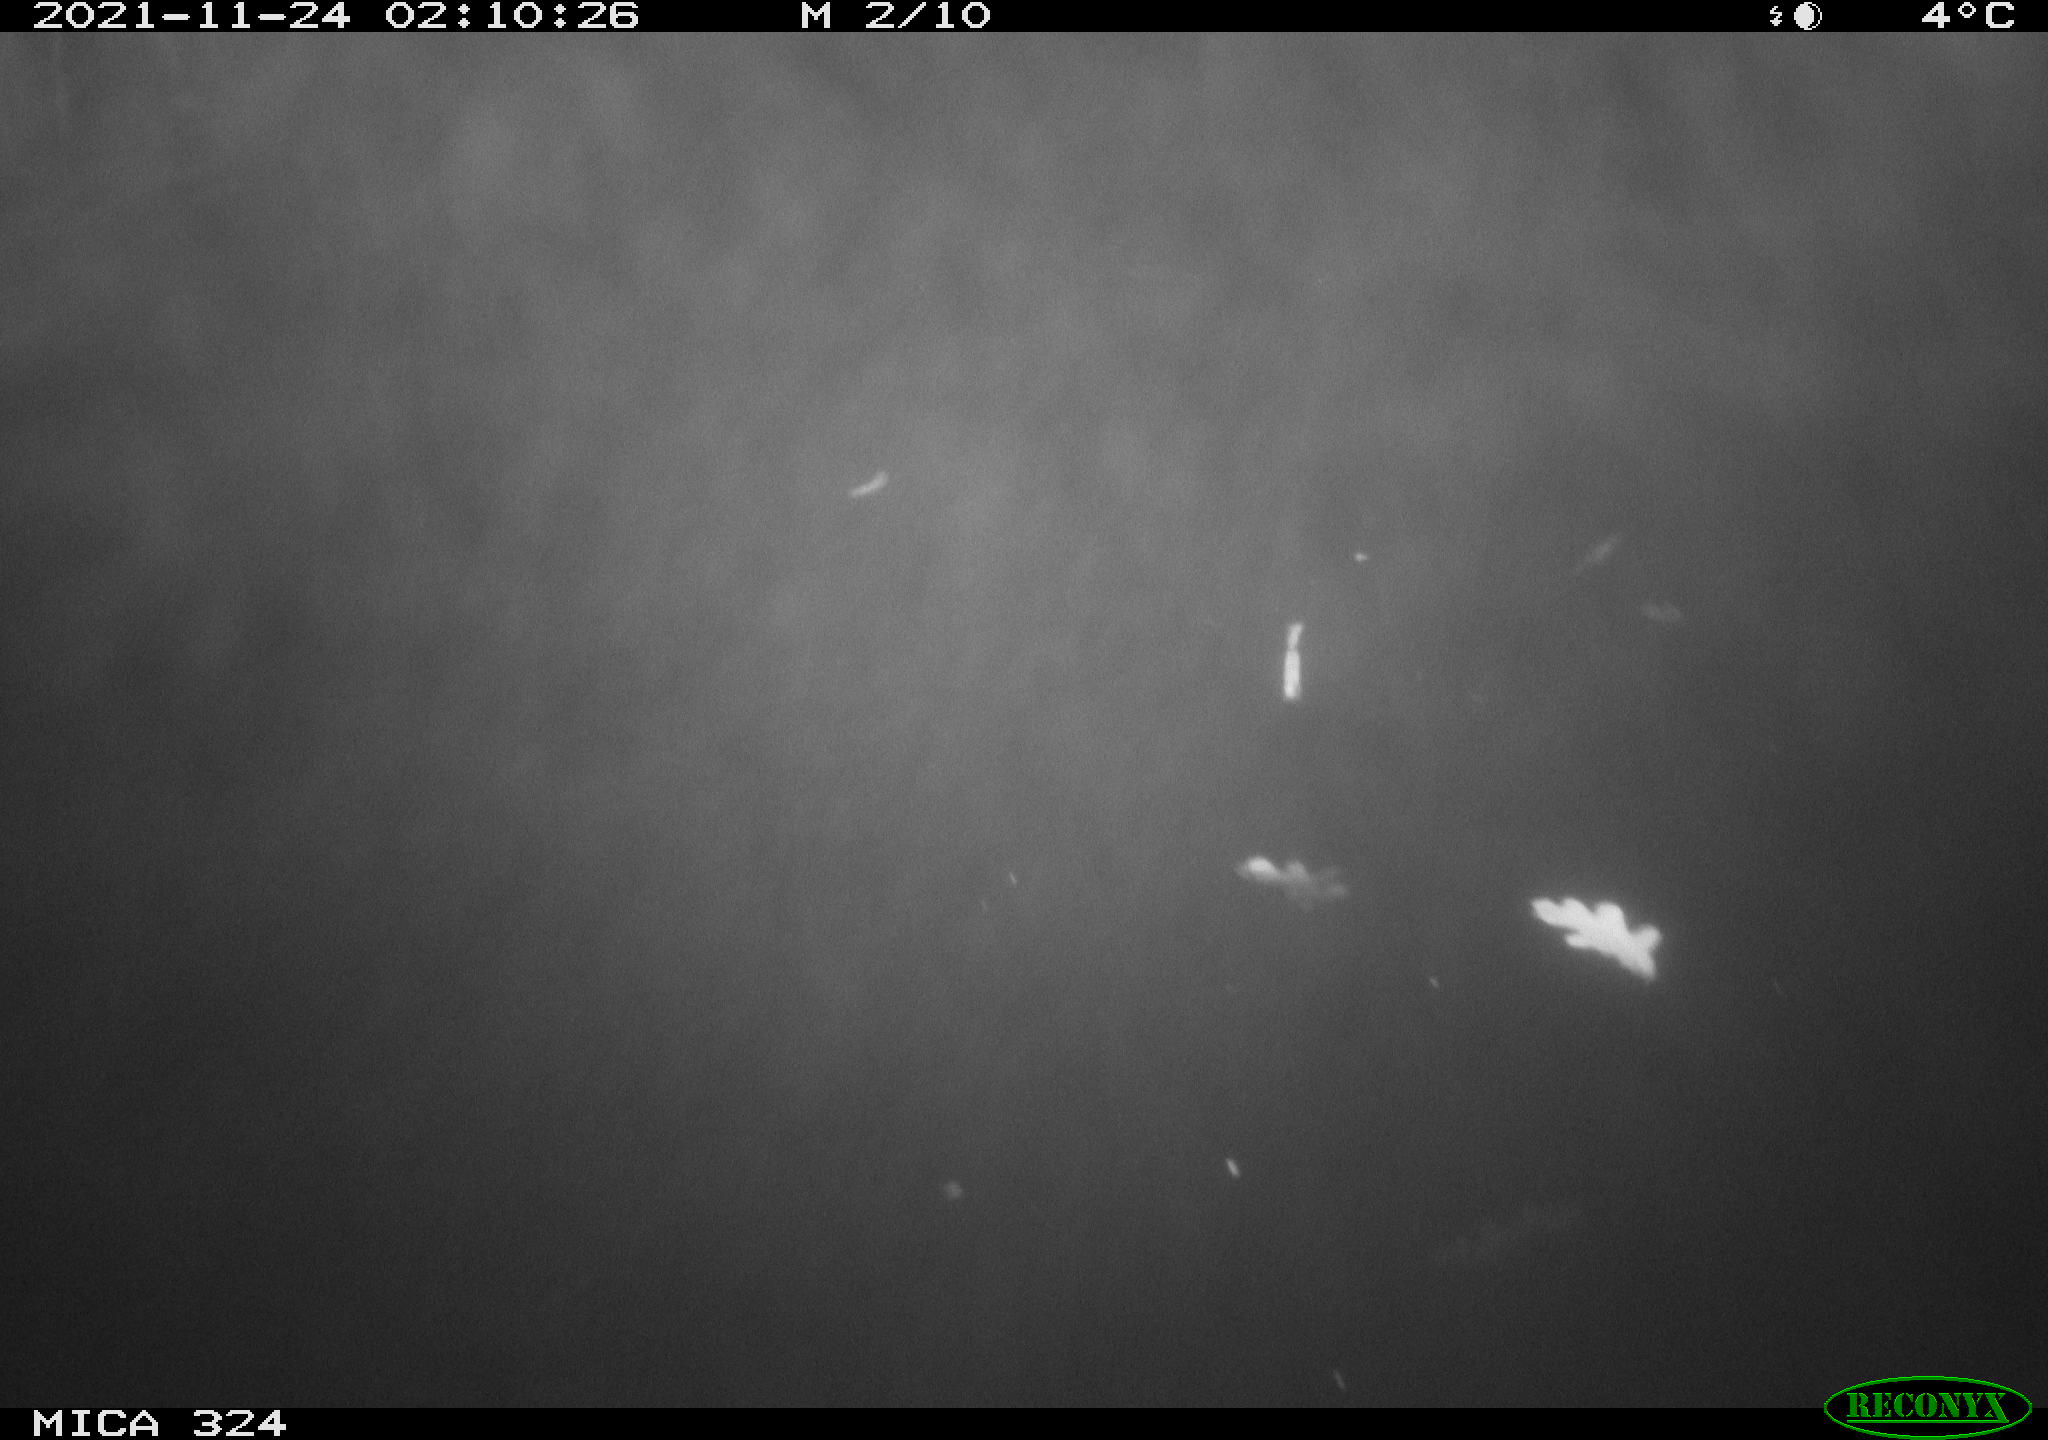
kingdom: Animalia
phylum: Chordata
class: Mammalia
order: Rodentia
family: Cricetidae
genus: Ondatra
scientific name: Ondatra zibethicus
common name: Muskrat
